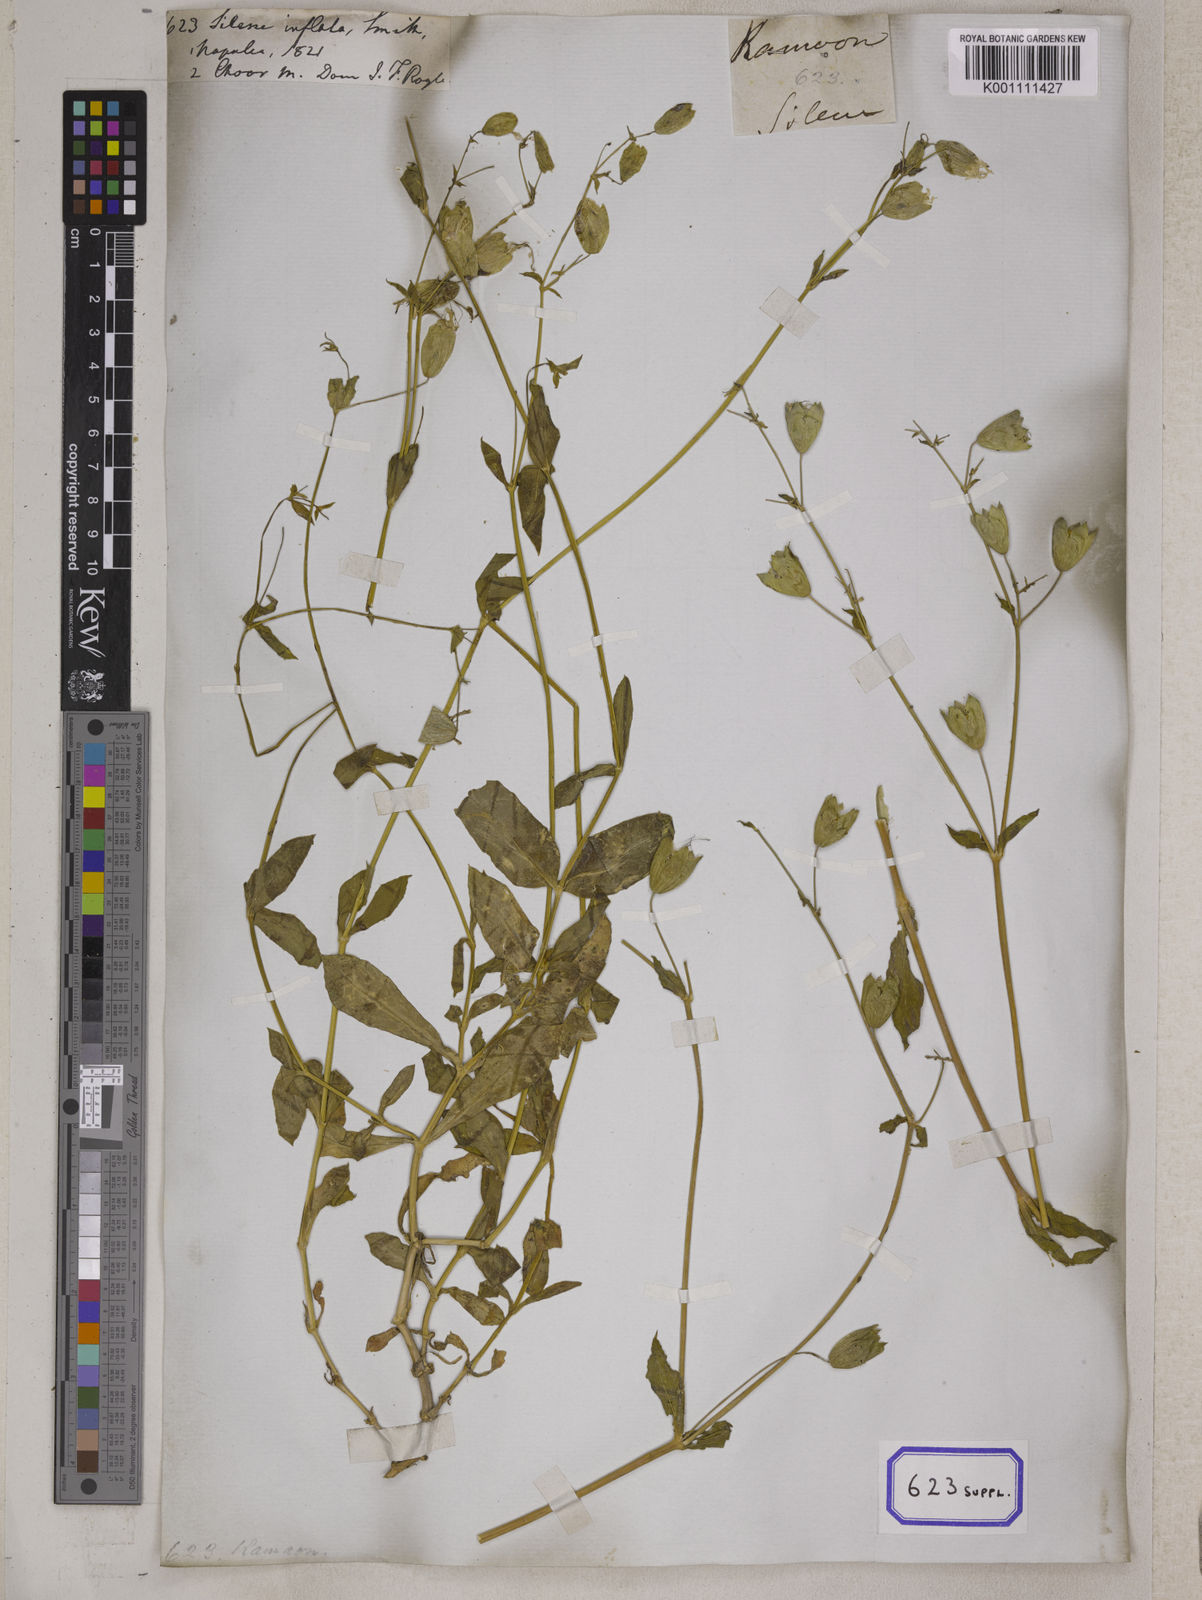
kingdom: Plantae
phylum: Tracheophyta
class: Magnoliopsida
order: Caryophyllales
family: Caryophyllaceae
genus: Silene
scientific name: Silene vulgaris
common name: Bladder campion
